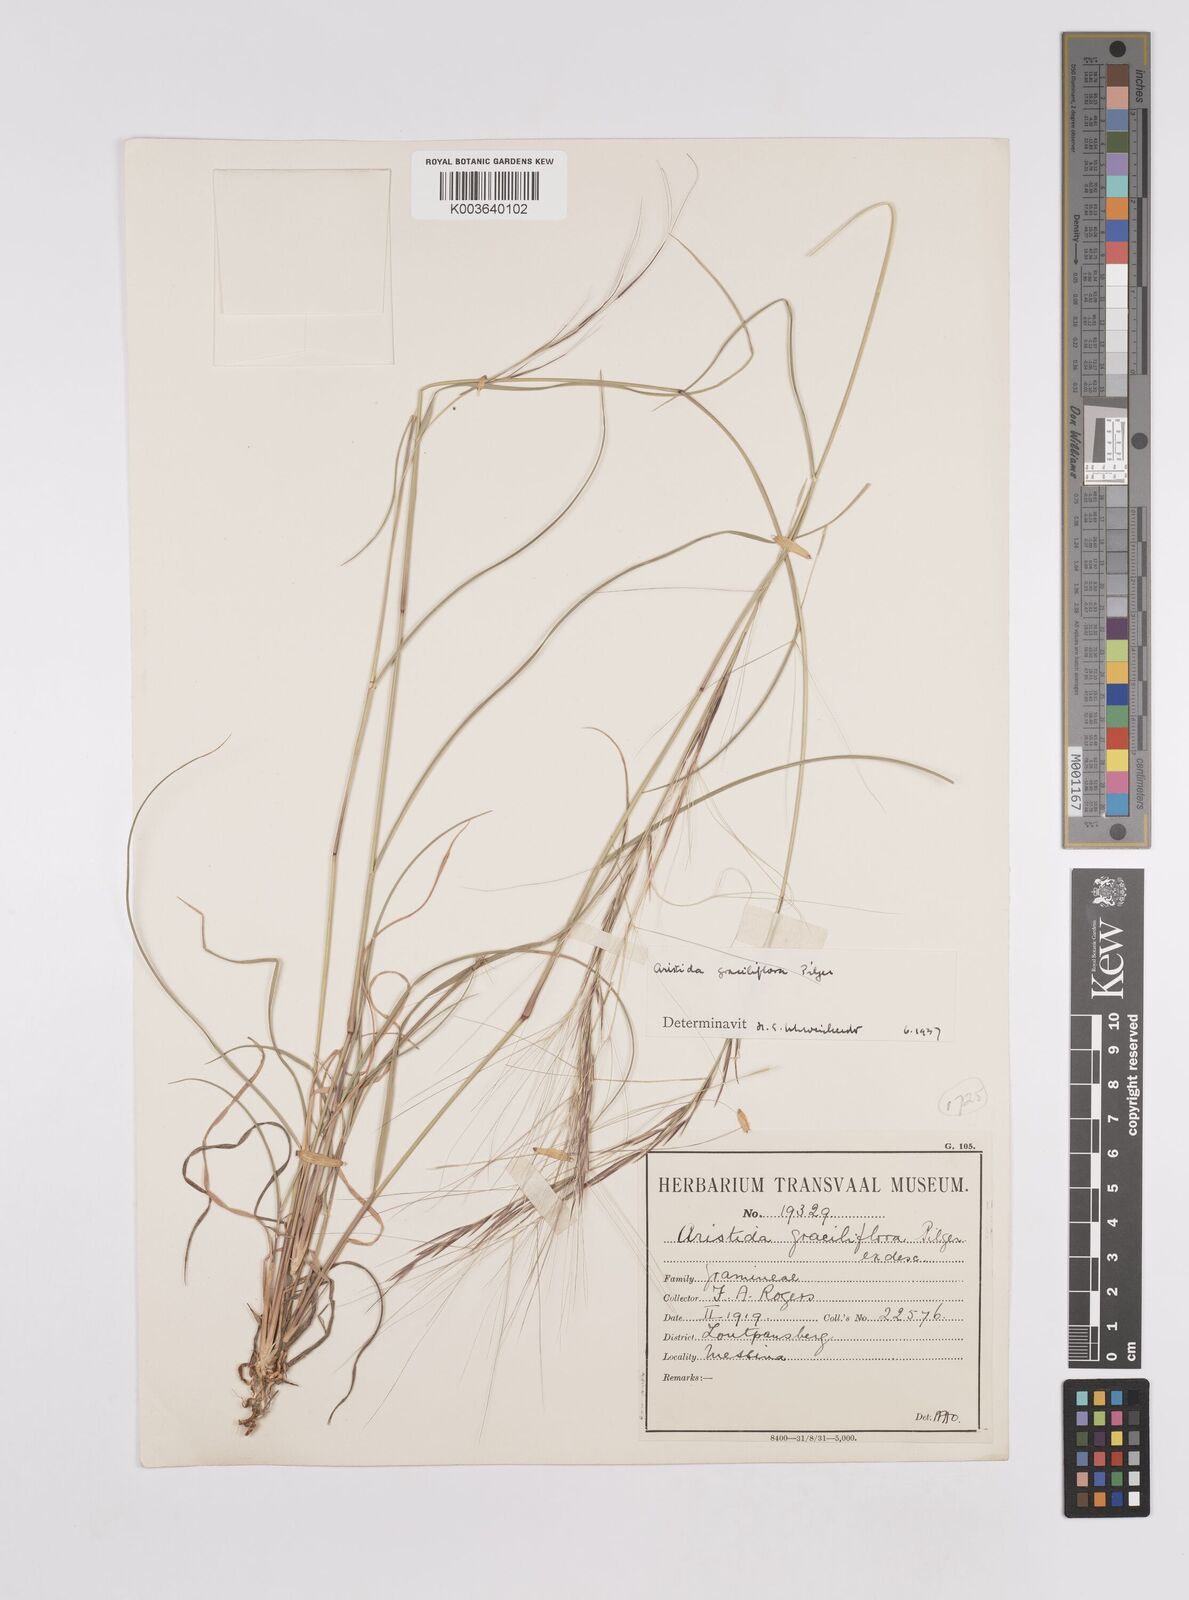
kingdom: Plantae
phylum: Tracheophyta
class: Liliopsida
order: Poales
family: Poaceae
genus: Aristida
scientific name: Aristida stipitata
